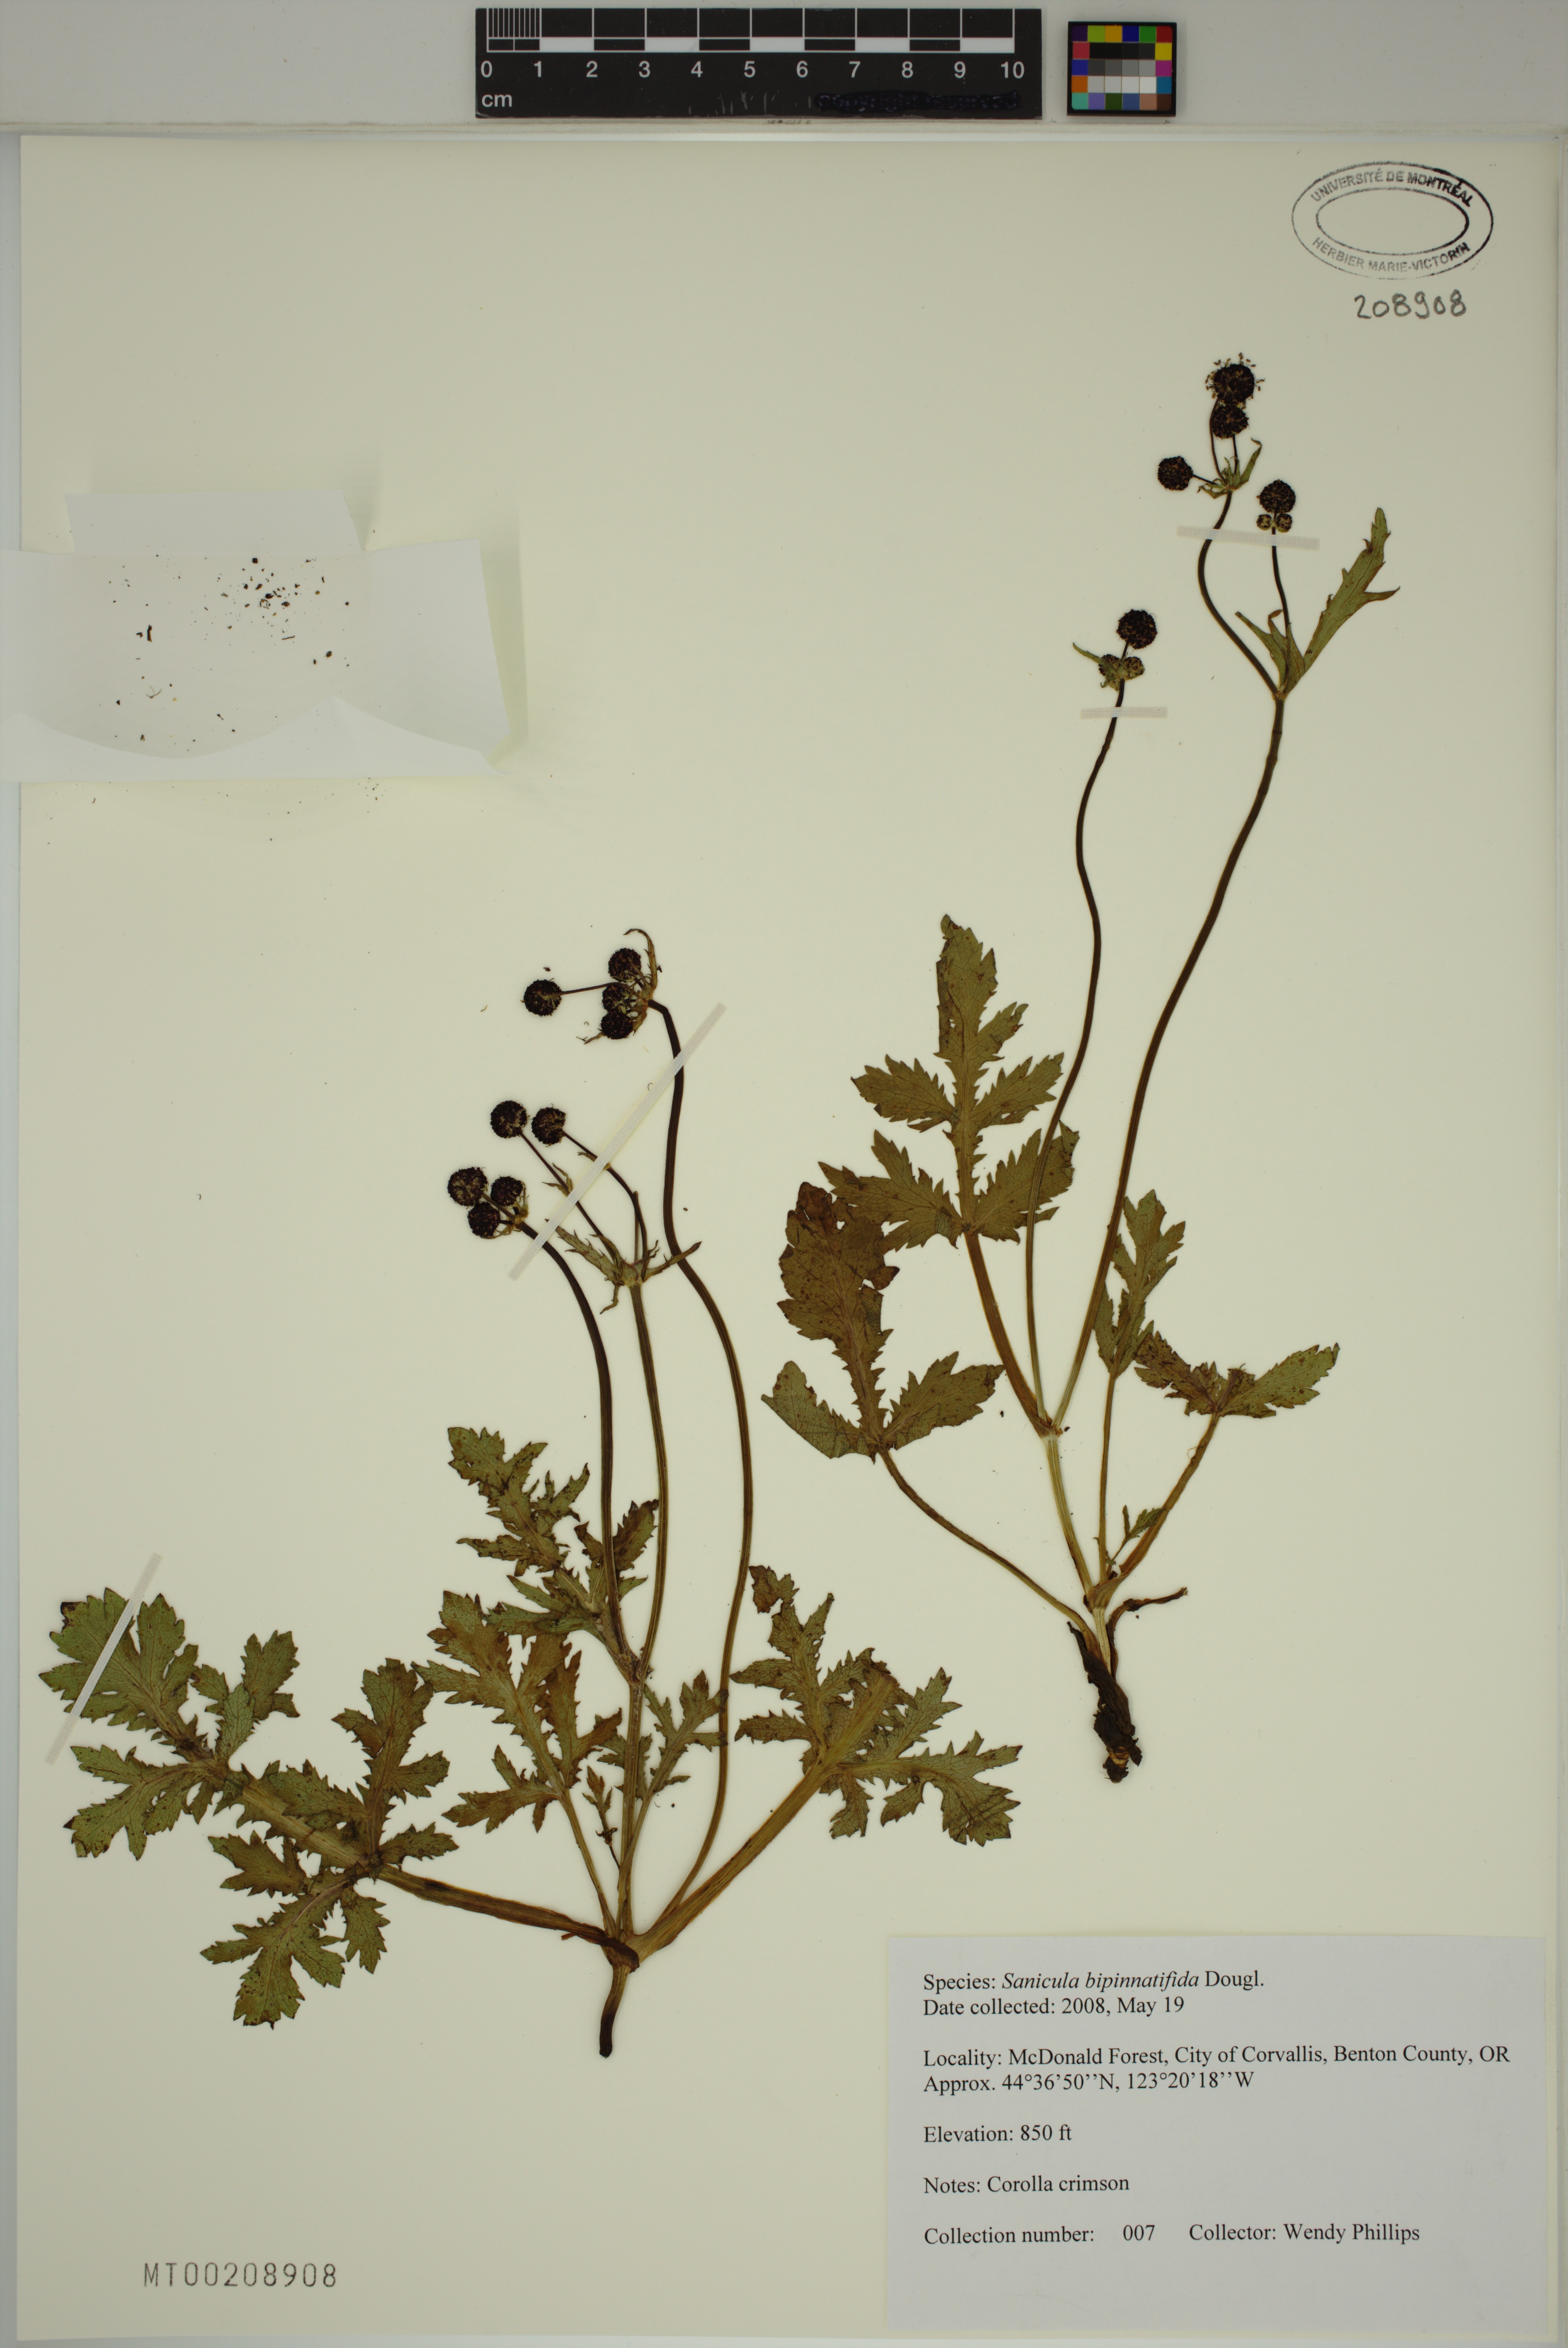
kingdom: Plantae
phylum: Tracheophyta
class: Magnoliopsida
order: Apiales
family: Apiaceae
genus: Sanicula
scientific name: Sanicula bipinnatifida
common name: Shoe-buttons
